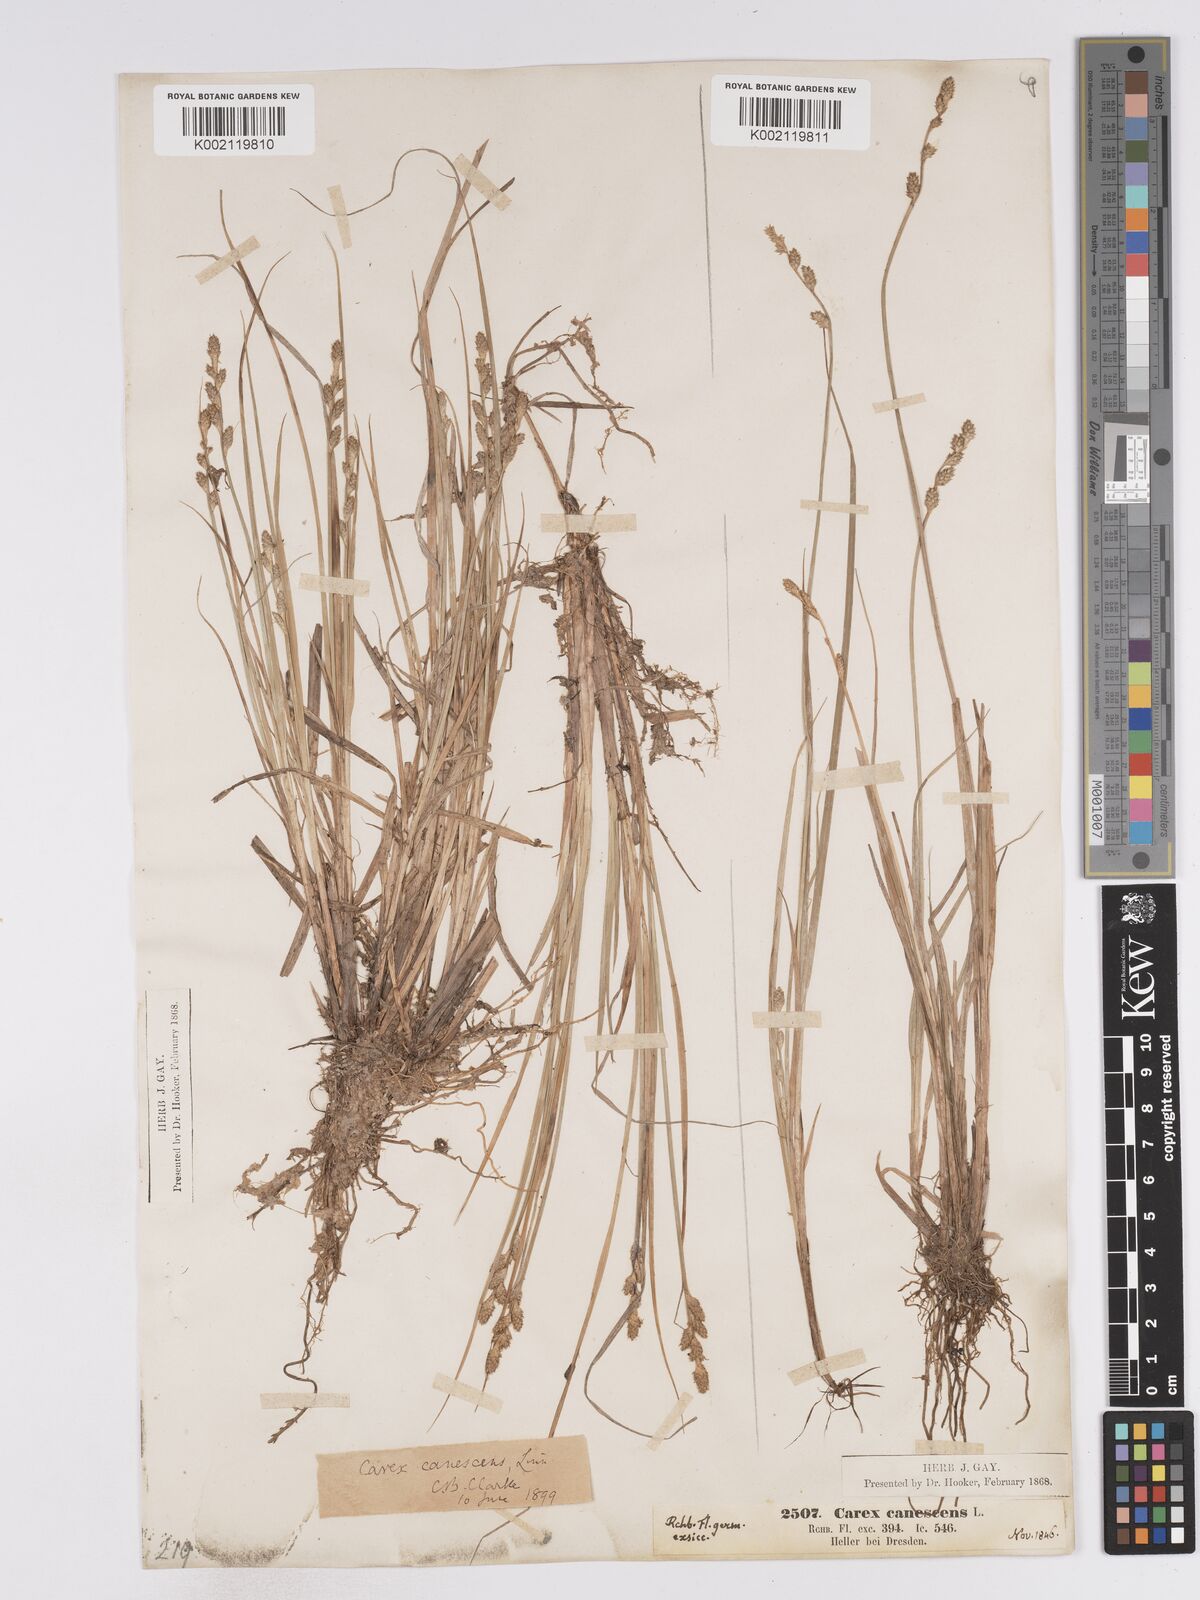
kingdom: Plantae
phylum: Tracheophyta
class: Liliopsida
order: Poales
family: Cyperaceae
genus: Carex
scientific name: Carex curta
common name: White sedge
